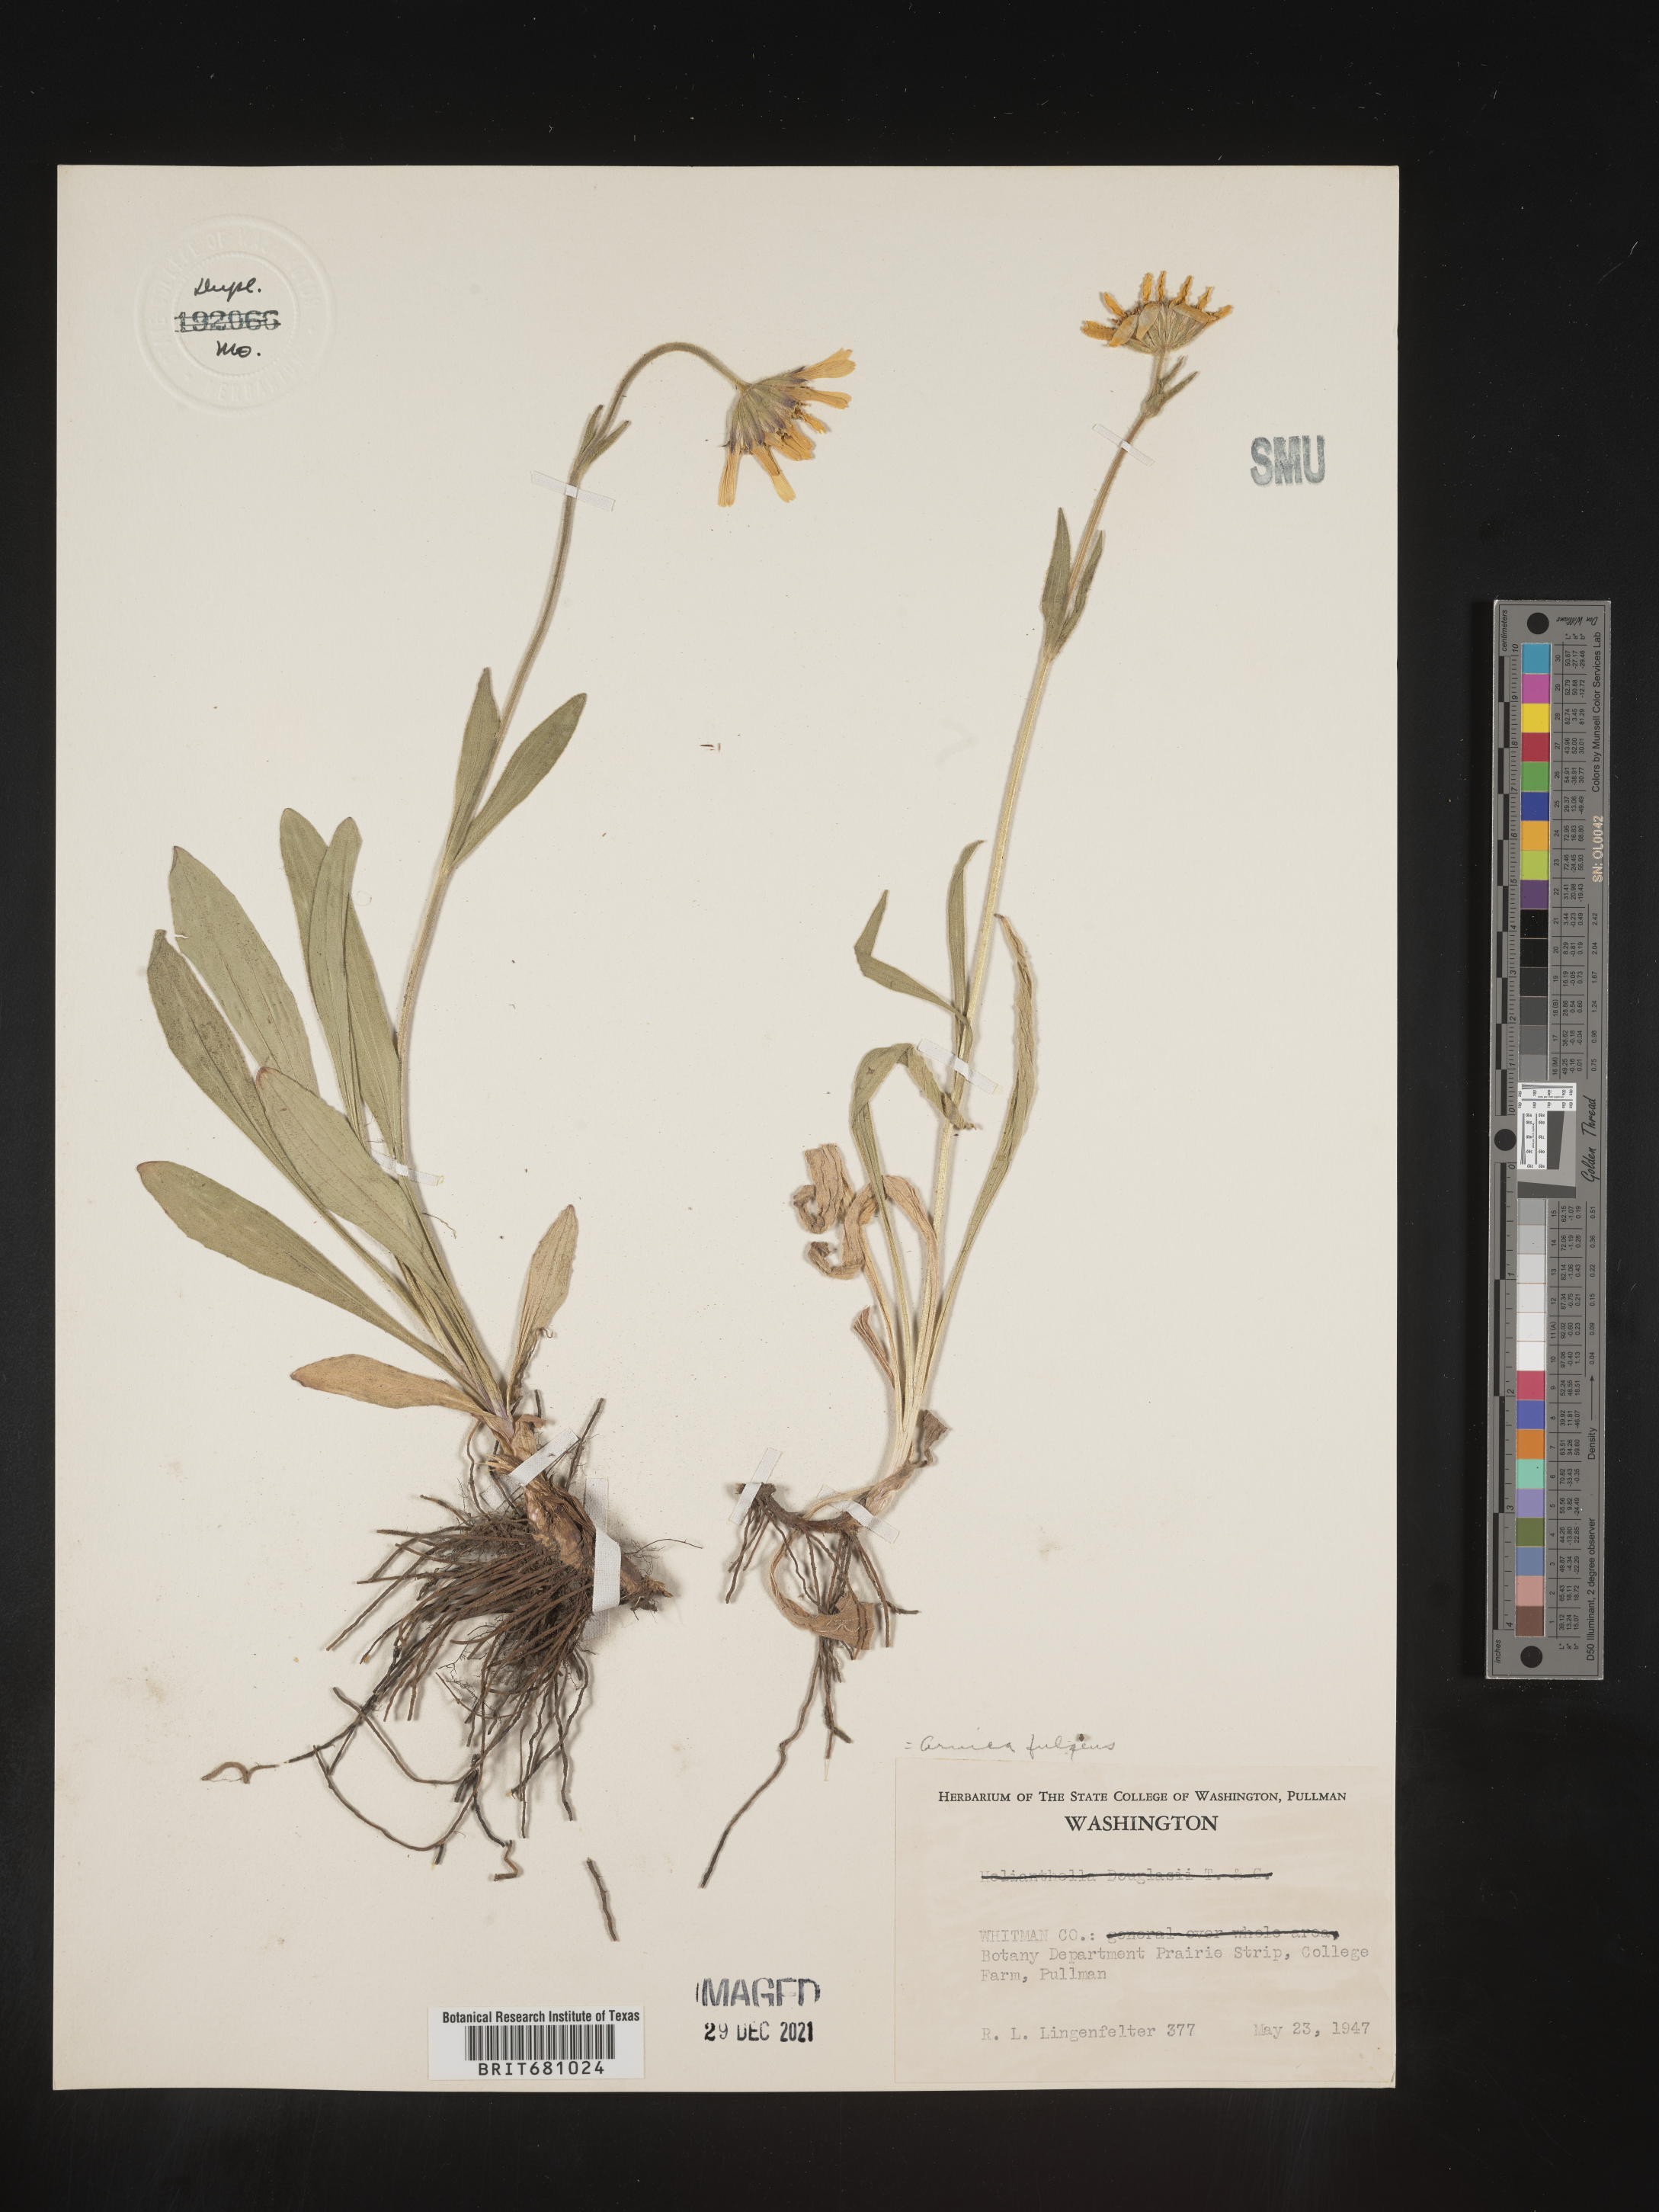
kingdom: Plantae
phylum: Tracheophyta
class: Magnoliopsida
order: Asterales
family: Asteraceae
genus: Arnica
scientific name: Arnica fulgens
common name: Foothill arnica
